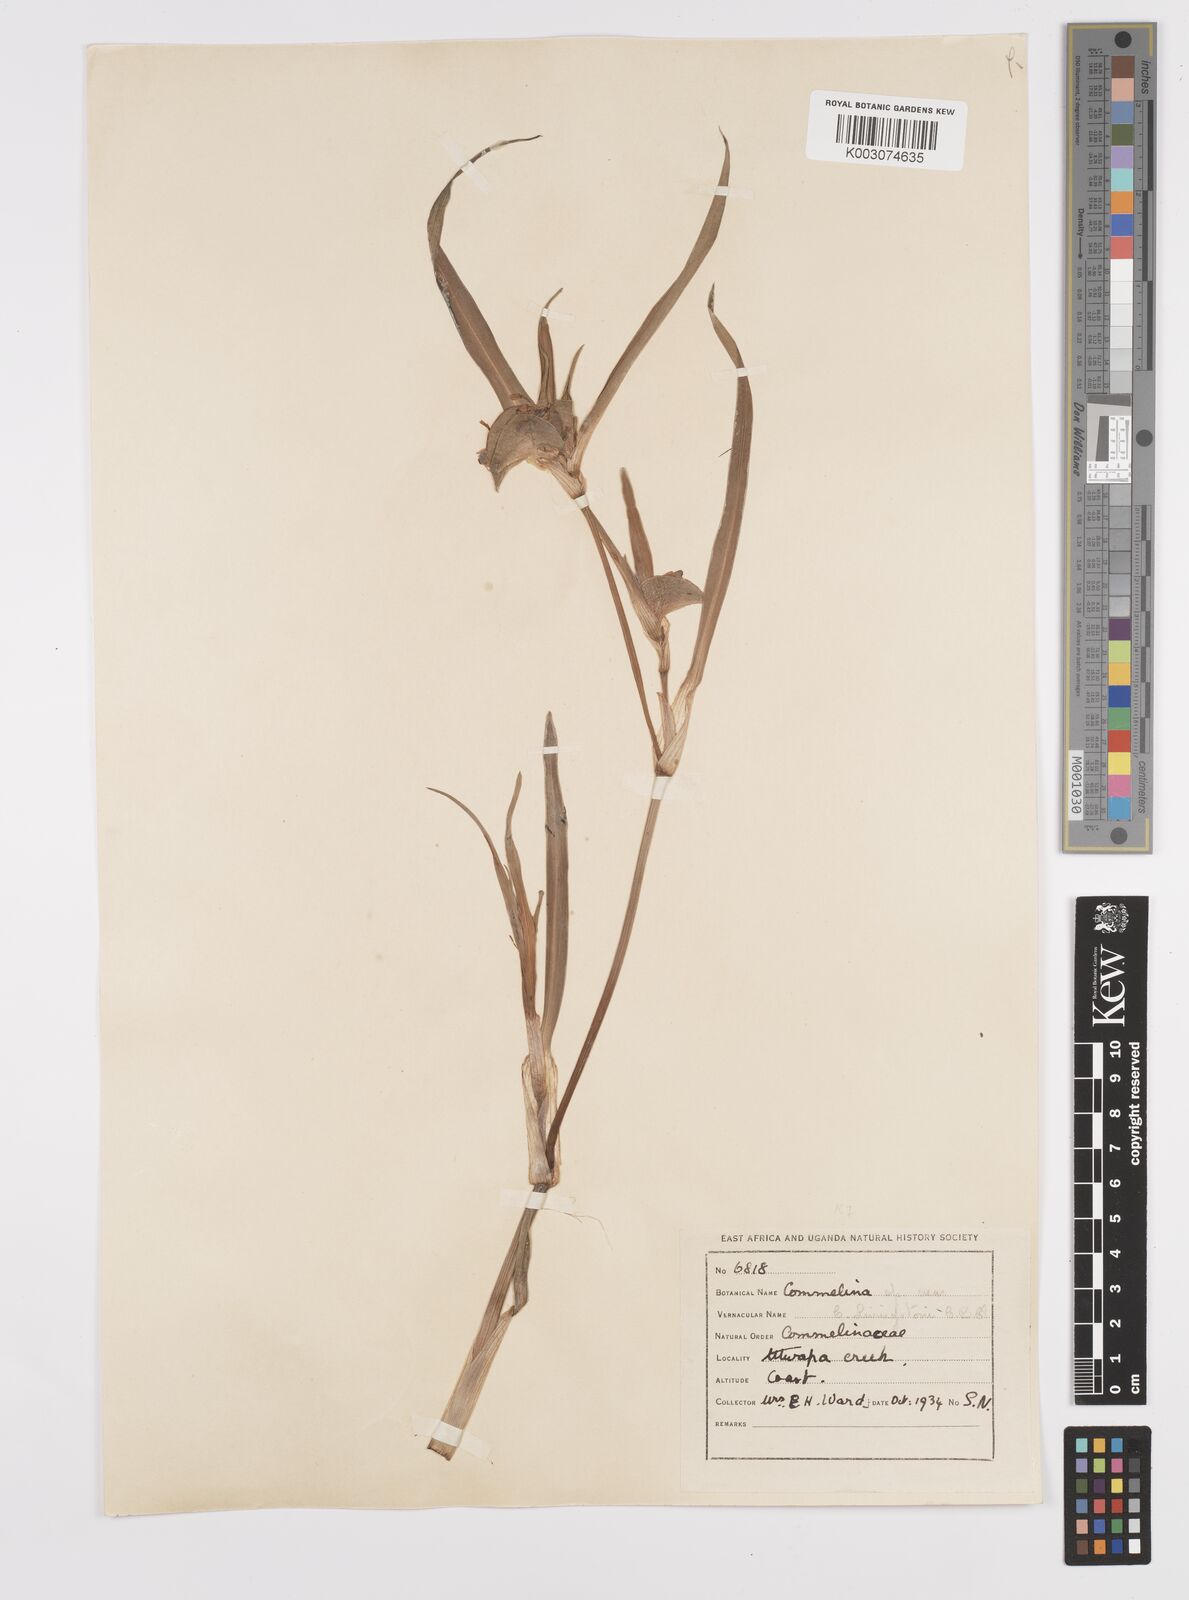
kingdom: Plantae
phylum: Tracheophyta
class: Liliopsida
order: Commelinales
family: Commelinaceae
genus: Commelina
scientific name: Commelina erecta
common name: Blousel blommetjie
